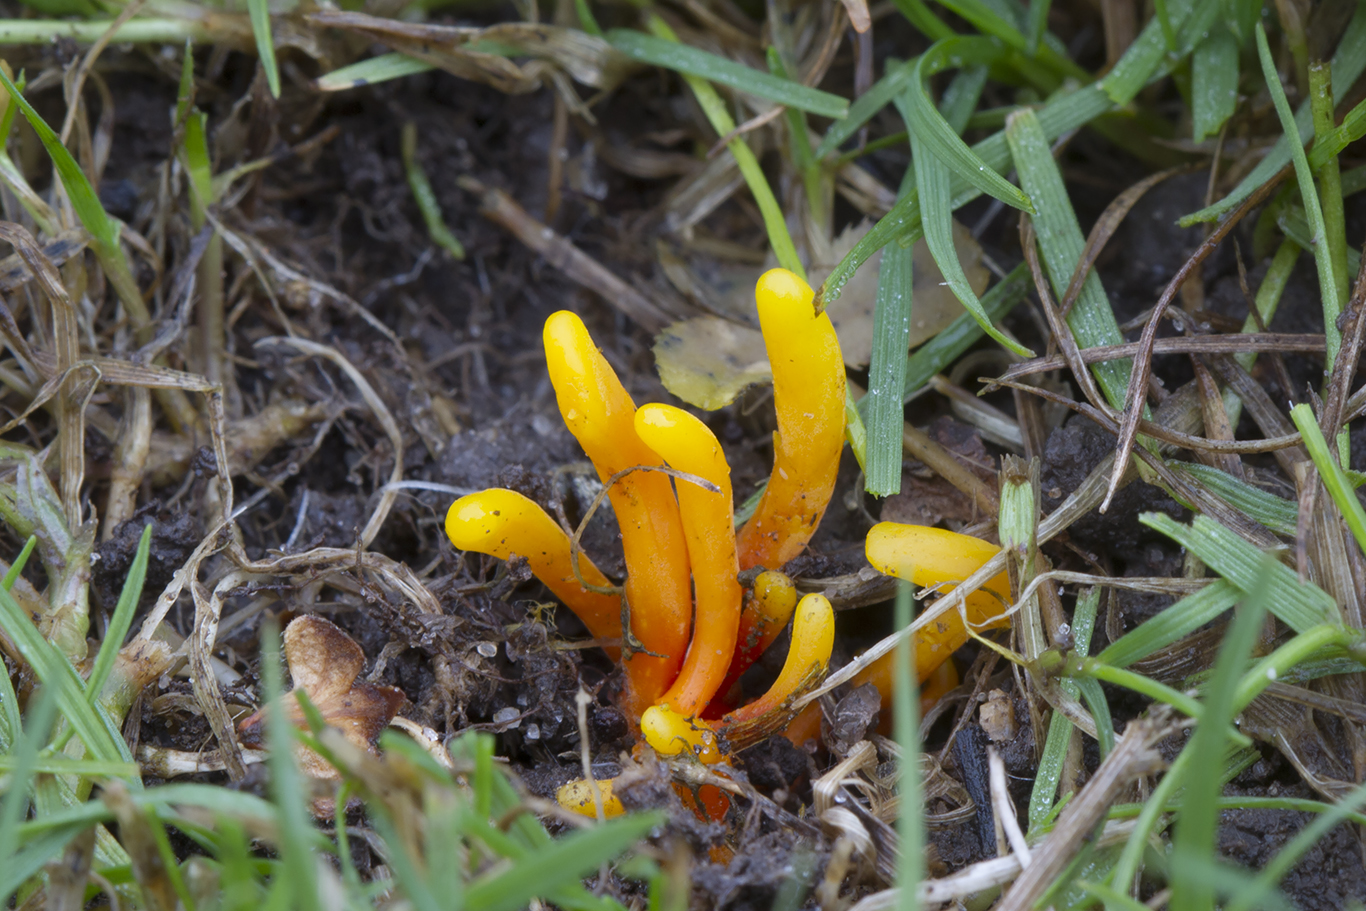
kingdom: Fungi
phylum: Basidiomycota
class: Agaricomycetes
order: Agaricales
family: Clavariaceae
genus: Clavulinopsis
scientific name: Clavulinopsis laeticolor
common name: flamme-køllesvamp
